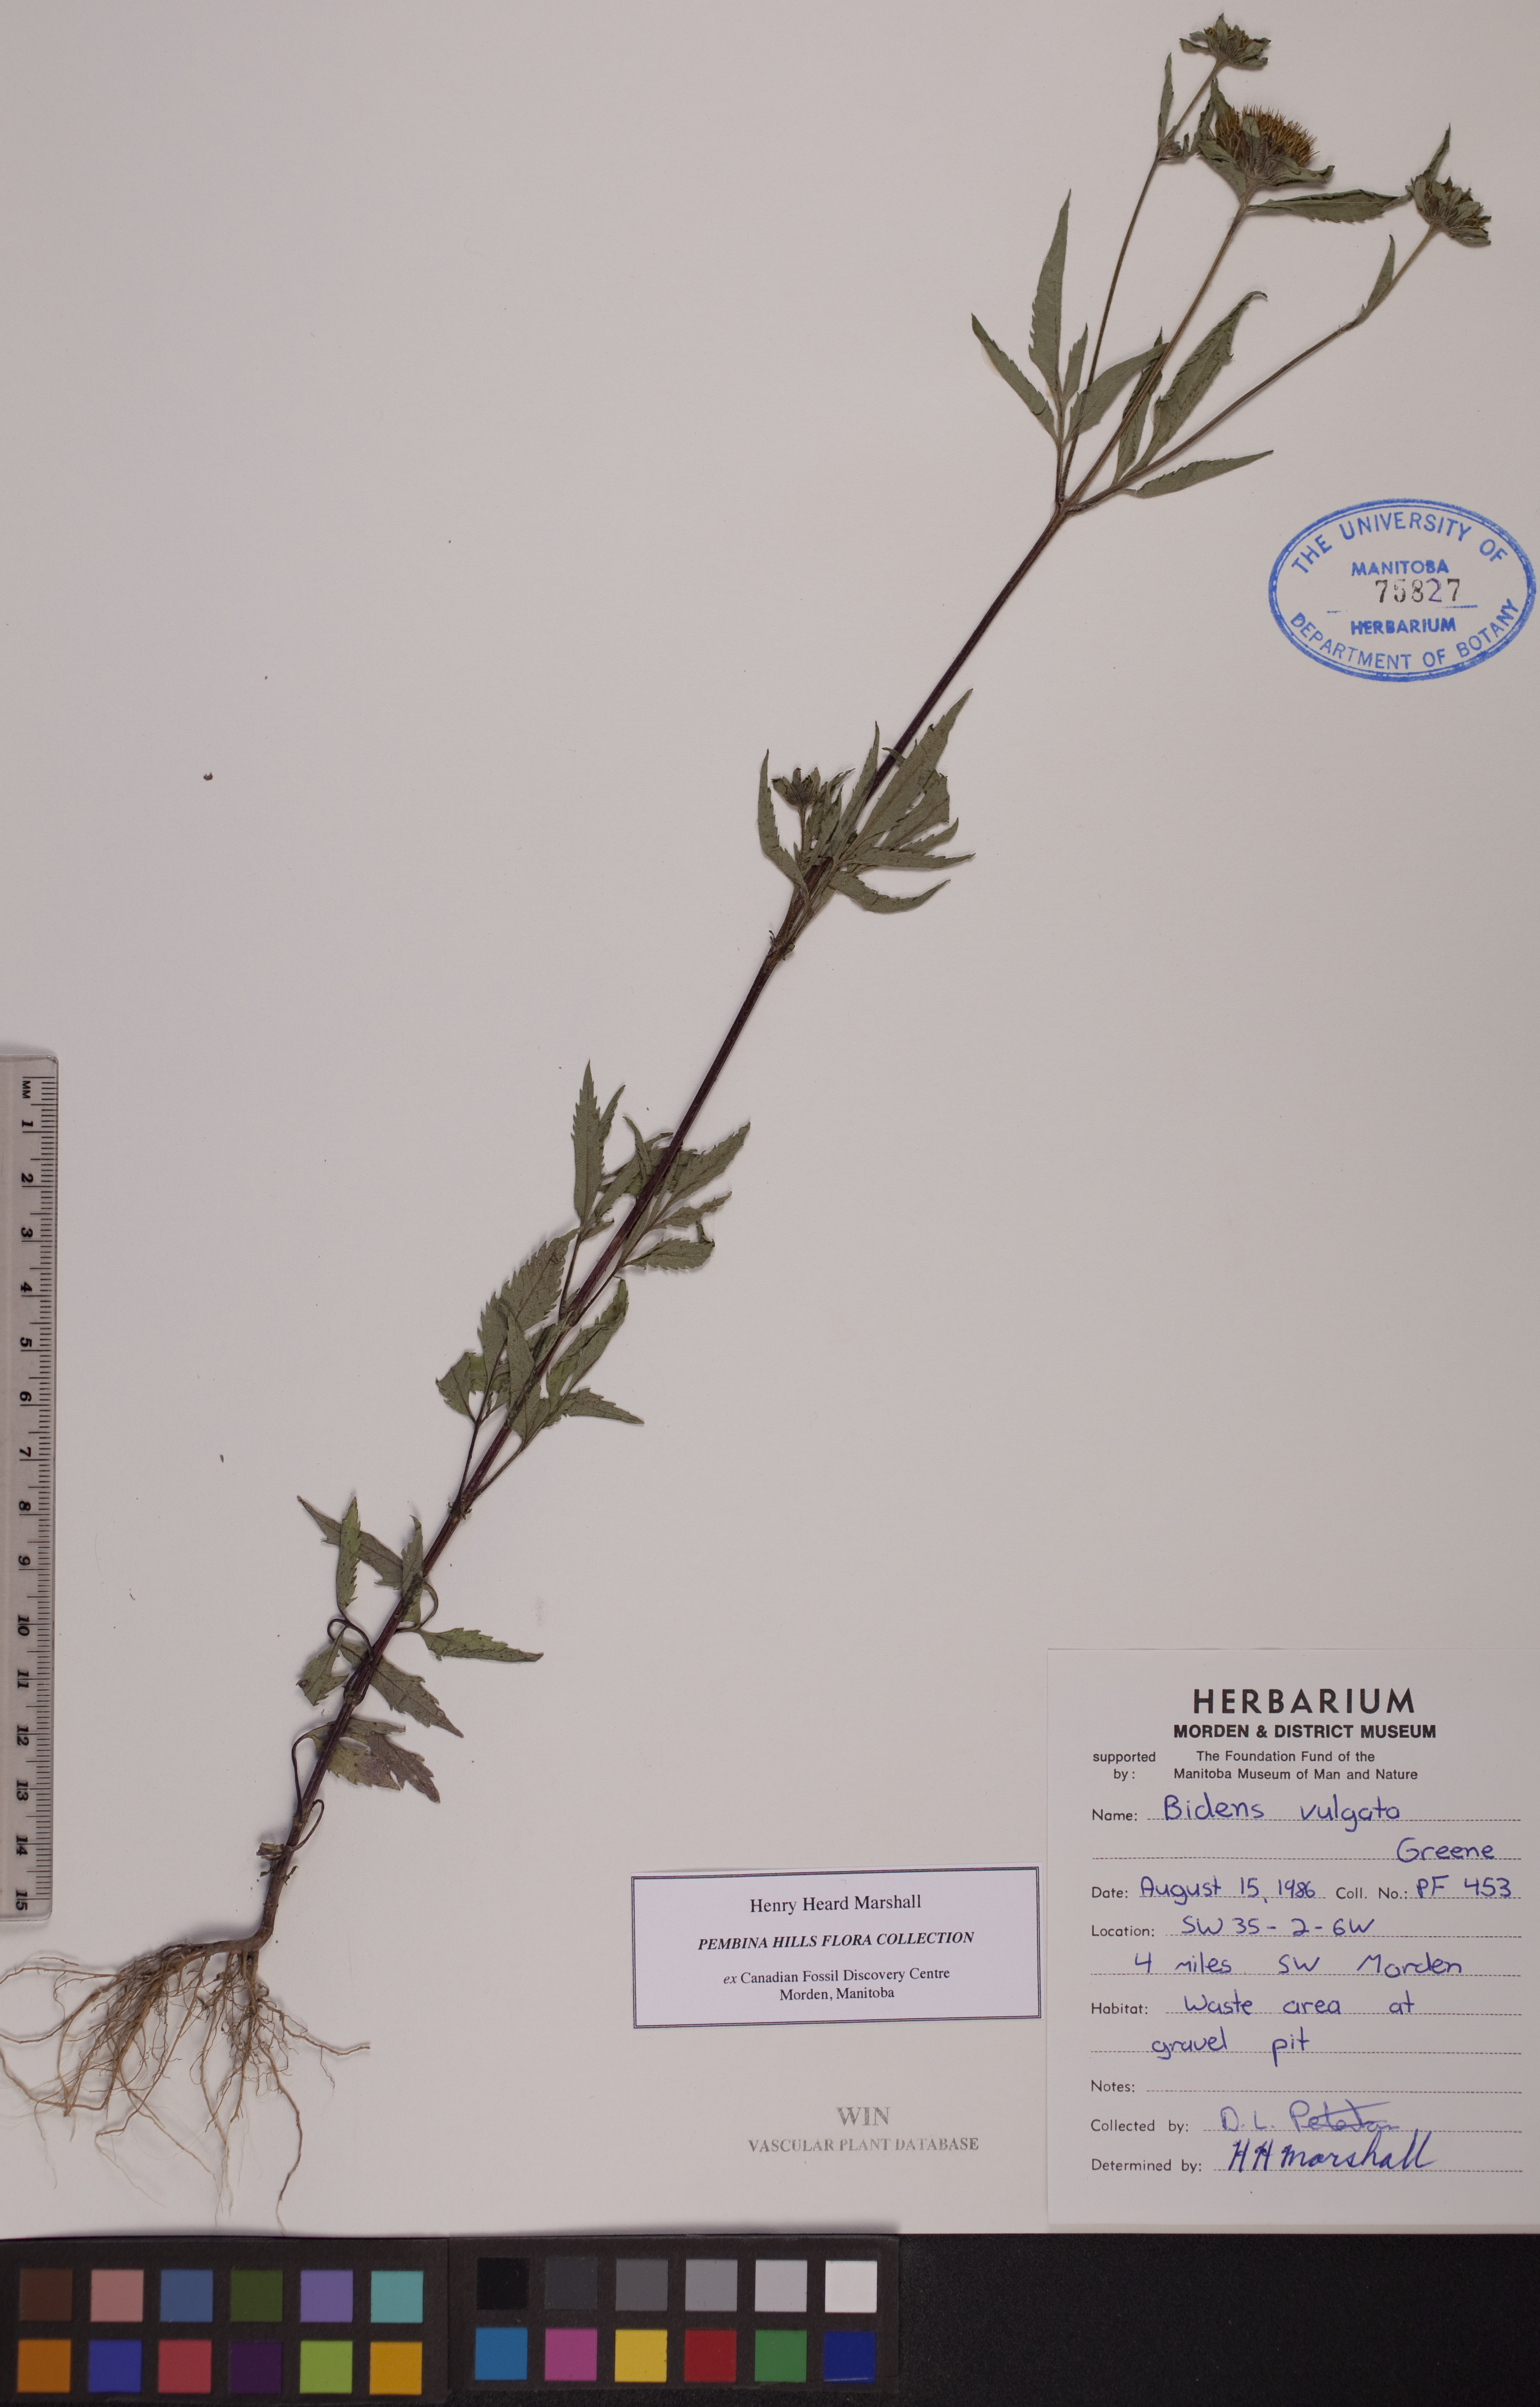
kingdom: Plantae
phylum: Tracheophyta
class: Magnoliopsida
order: Asterales
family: Asteraceae
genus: Bidens
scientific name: Bidens vulgata
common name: Tall beggarticks
